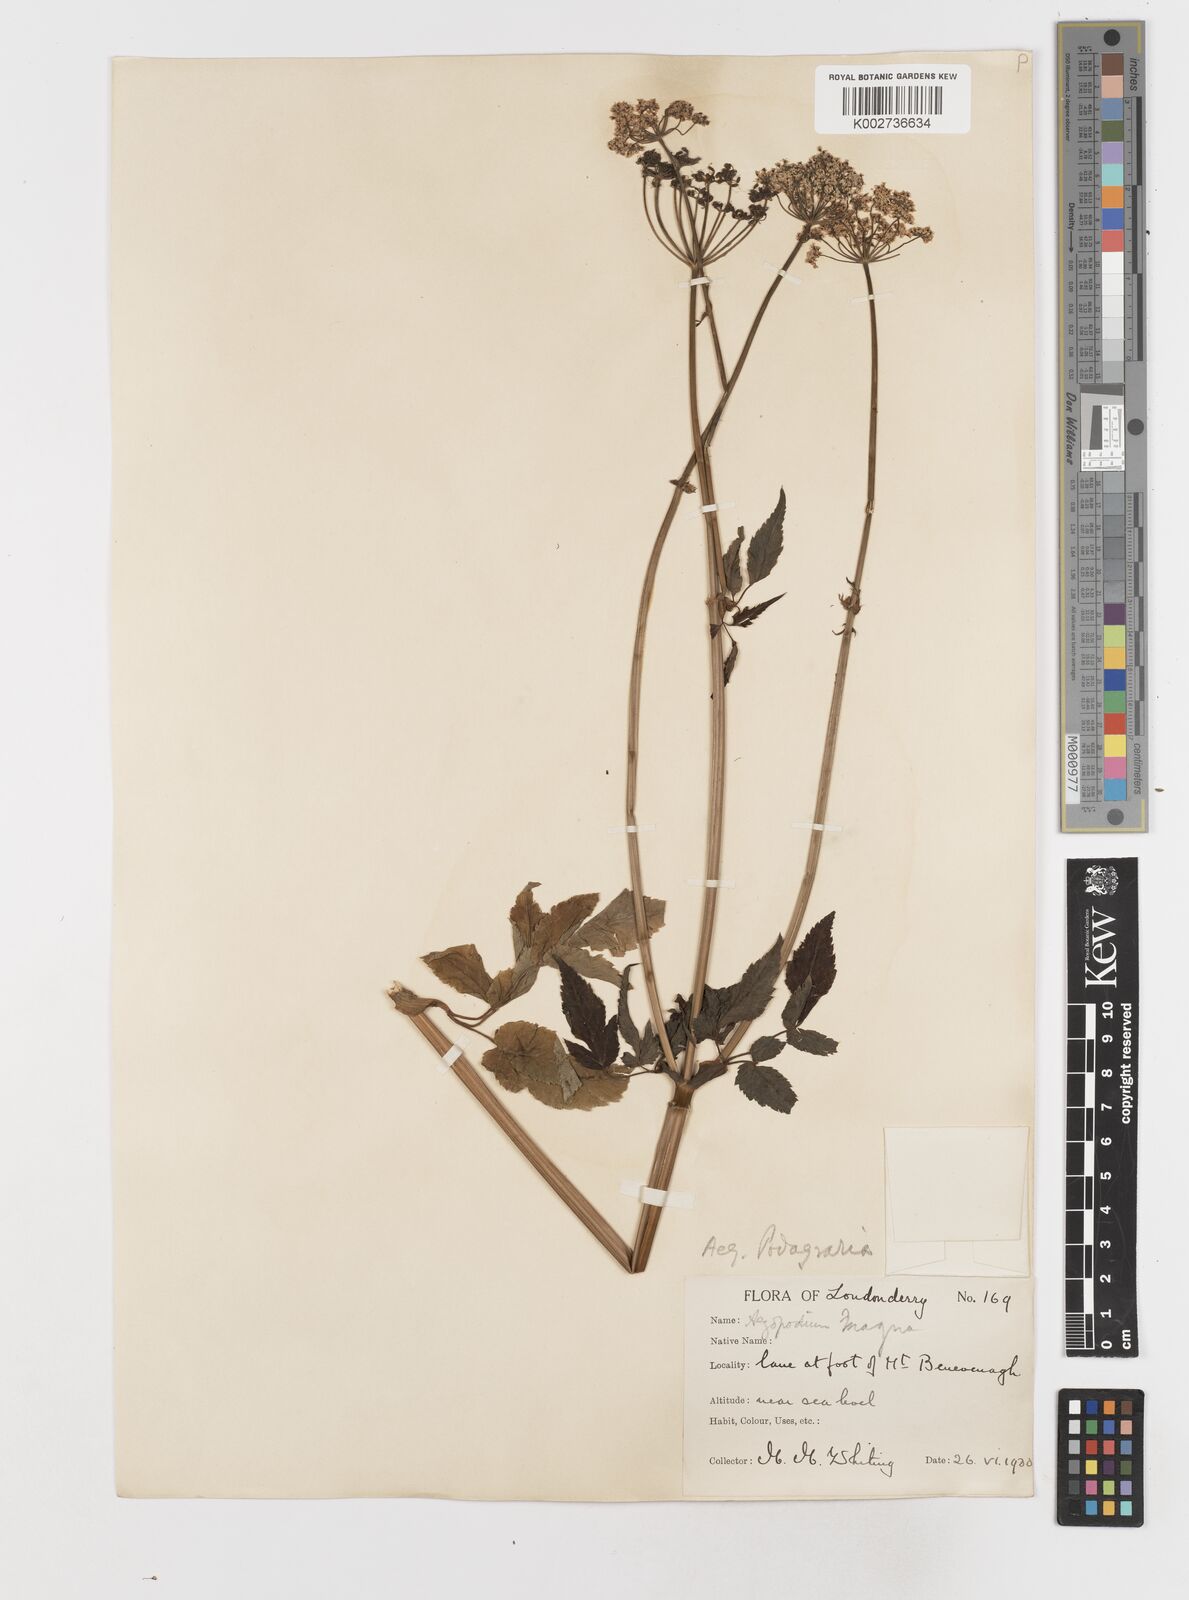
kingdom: Plantae
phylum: Tracheophyta
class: Magnoliopsida
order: Apiales
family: Apiaceae
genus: Aegopodium
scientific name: Aegopodium podagraria
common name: Ground-elder
